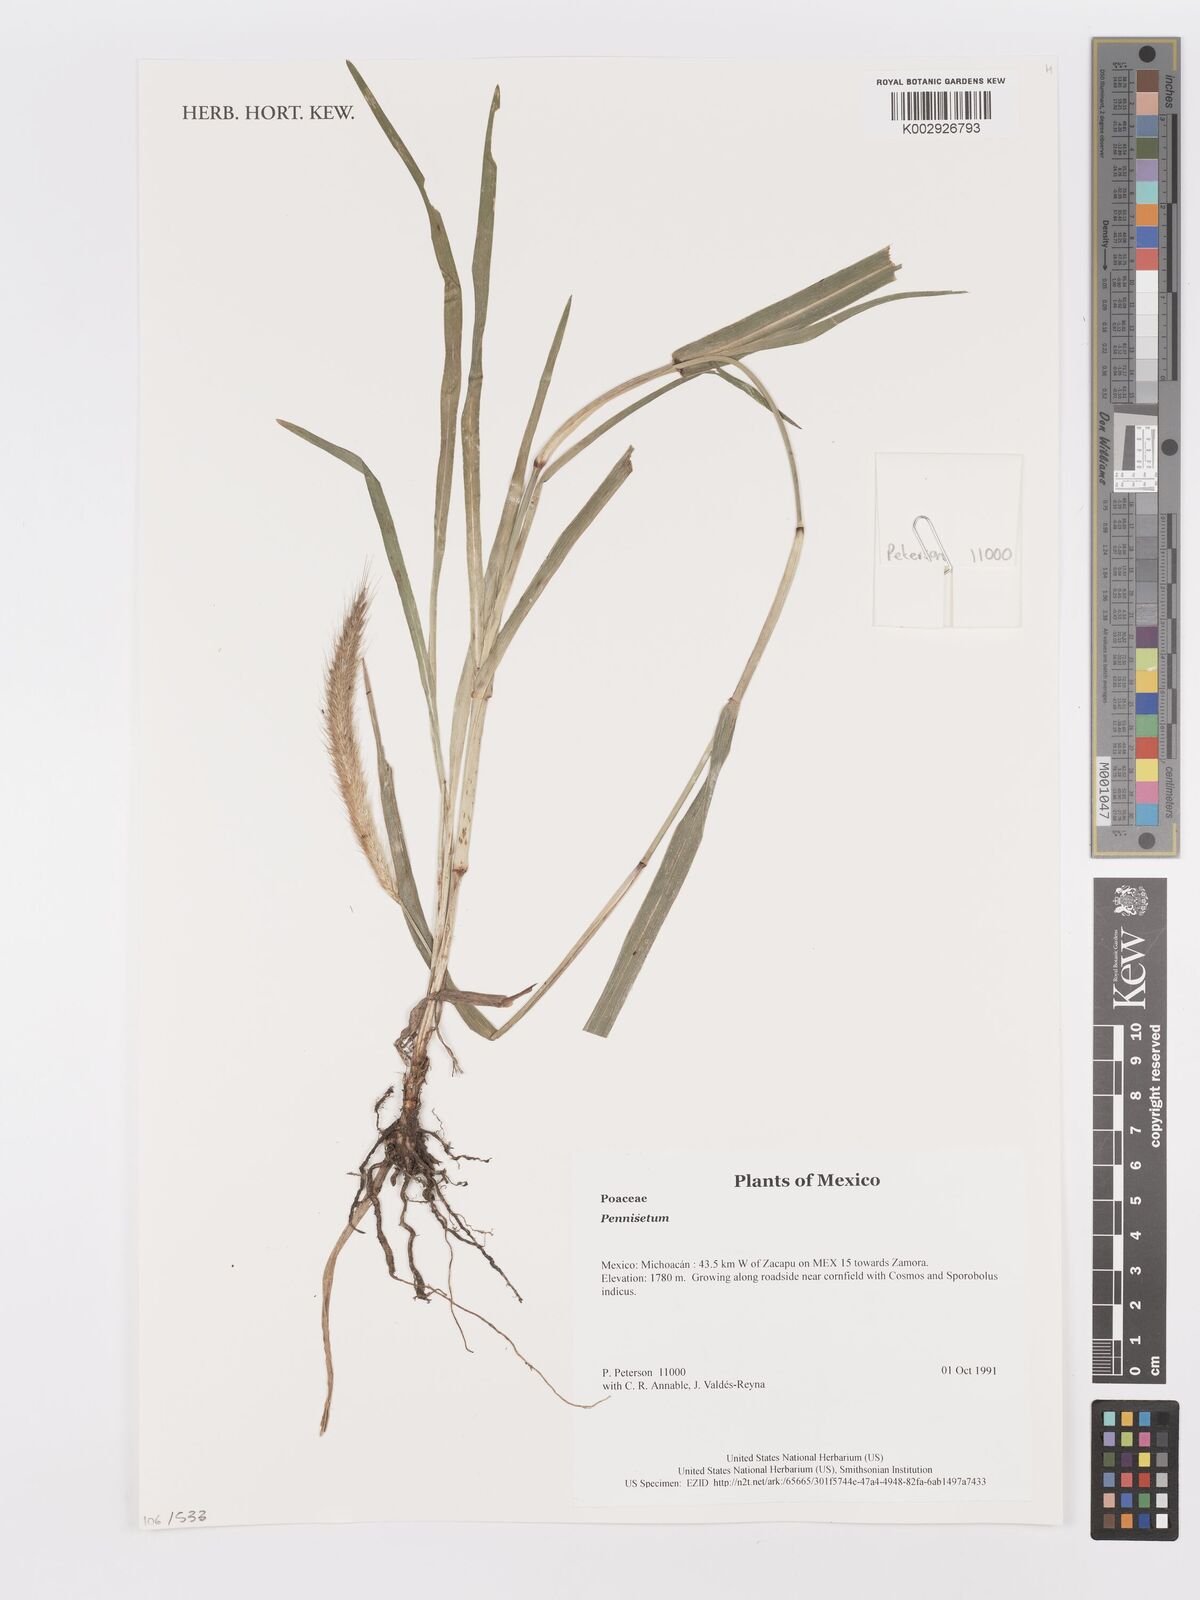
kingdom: Plantae
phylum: Tracheophyta
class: Liliopsida
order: Poales
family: Poaceae
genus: Cenchrus
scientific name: Cenchrus Pennisetum spec
